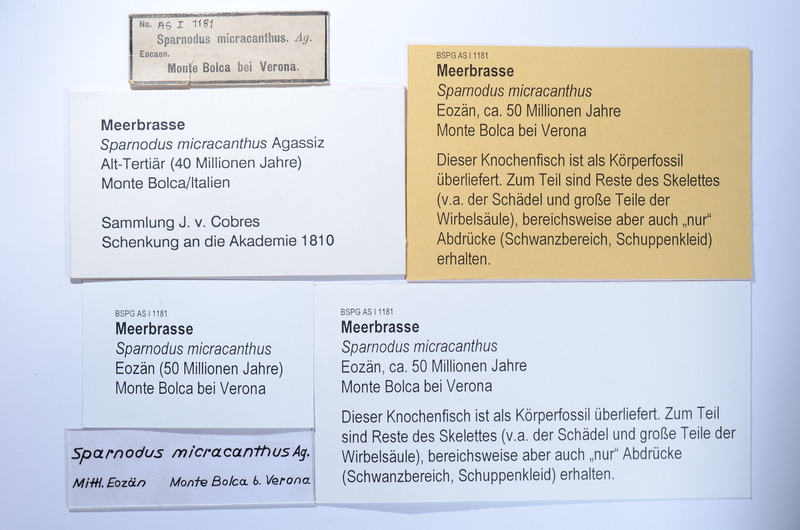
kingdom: Animalia
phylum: Chordata
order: Perciformes
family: Sparidae
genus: Sparnodus
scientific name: Sparnodus micracanthus
